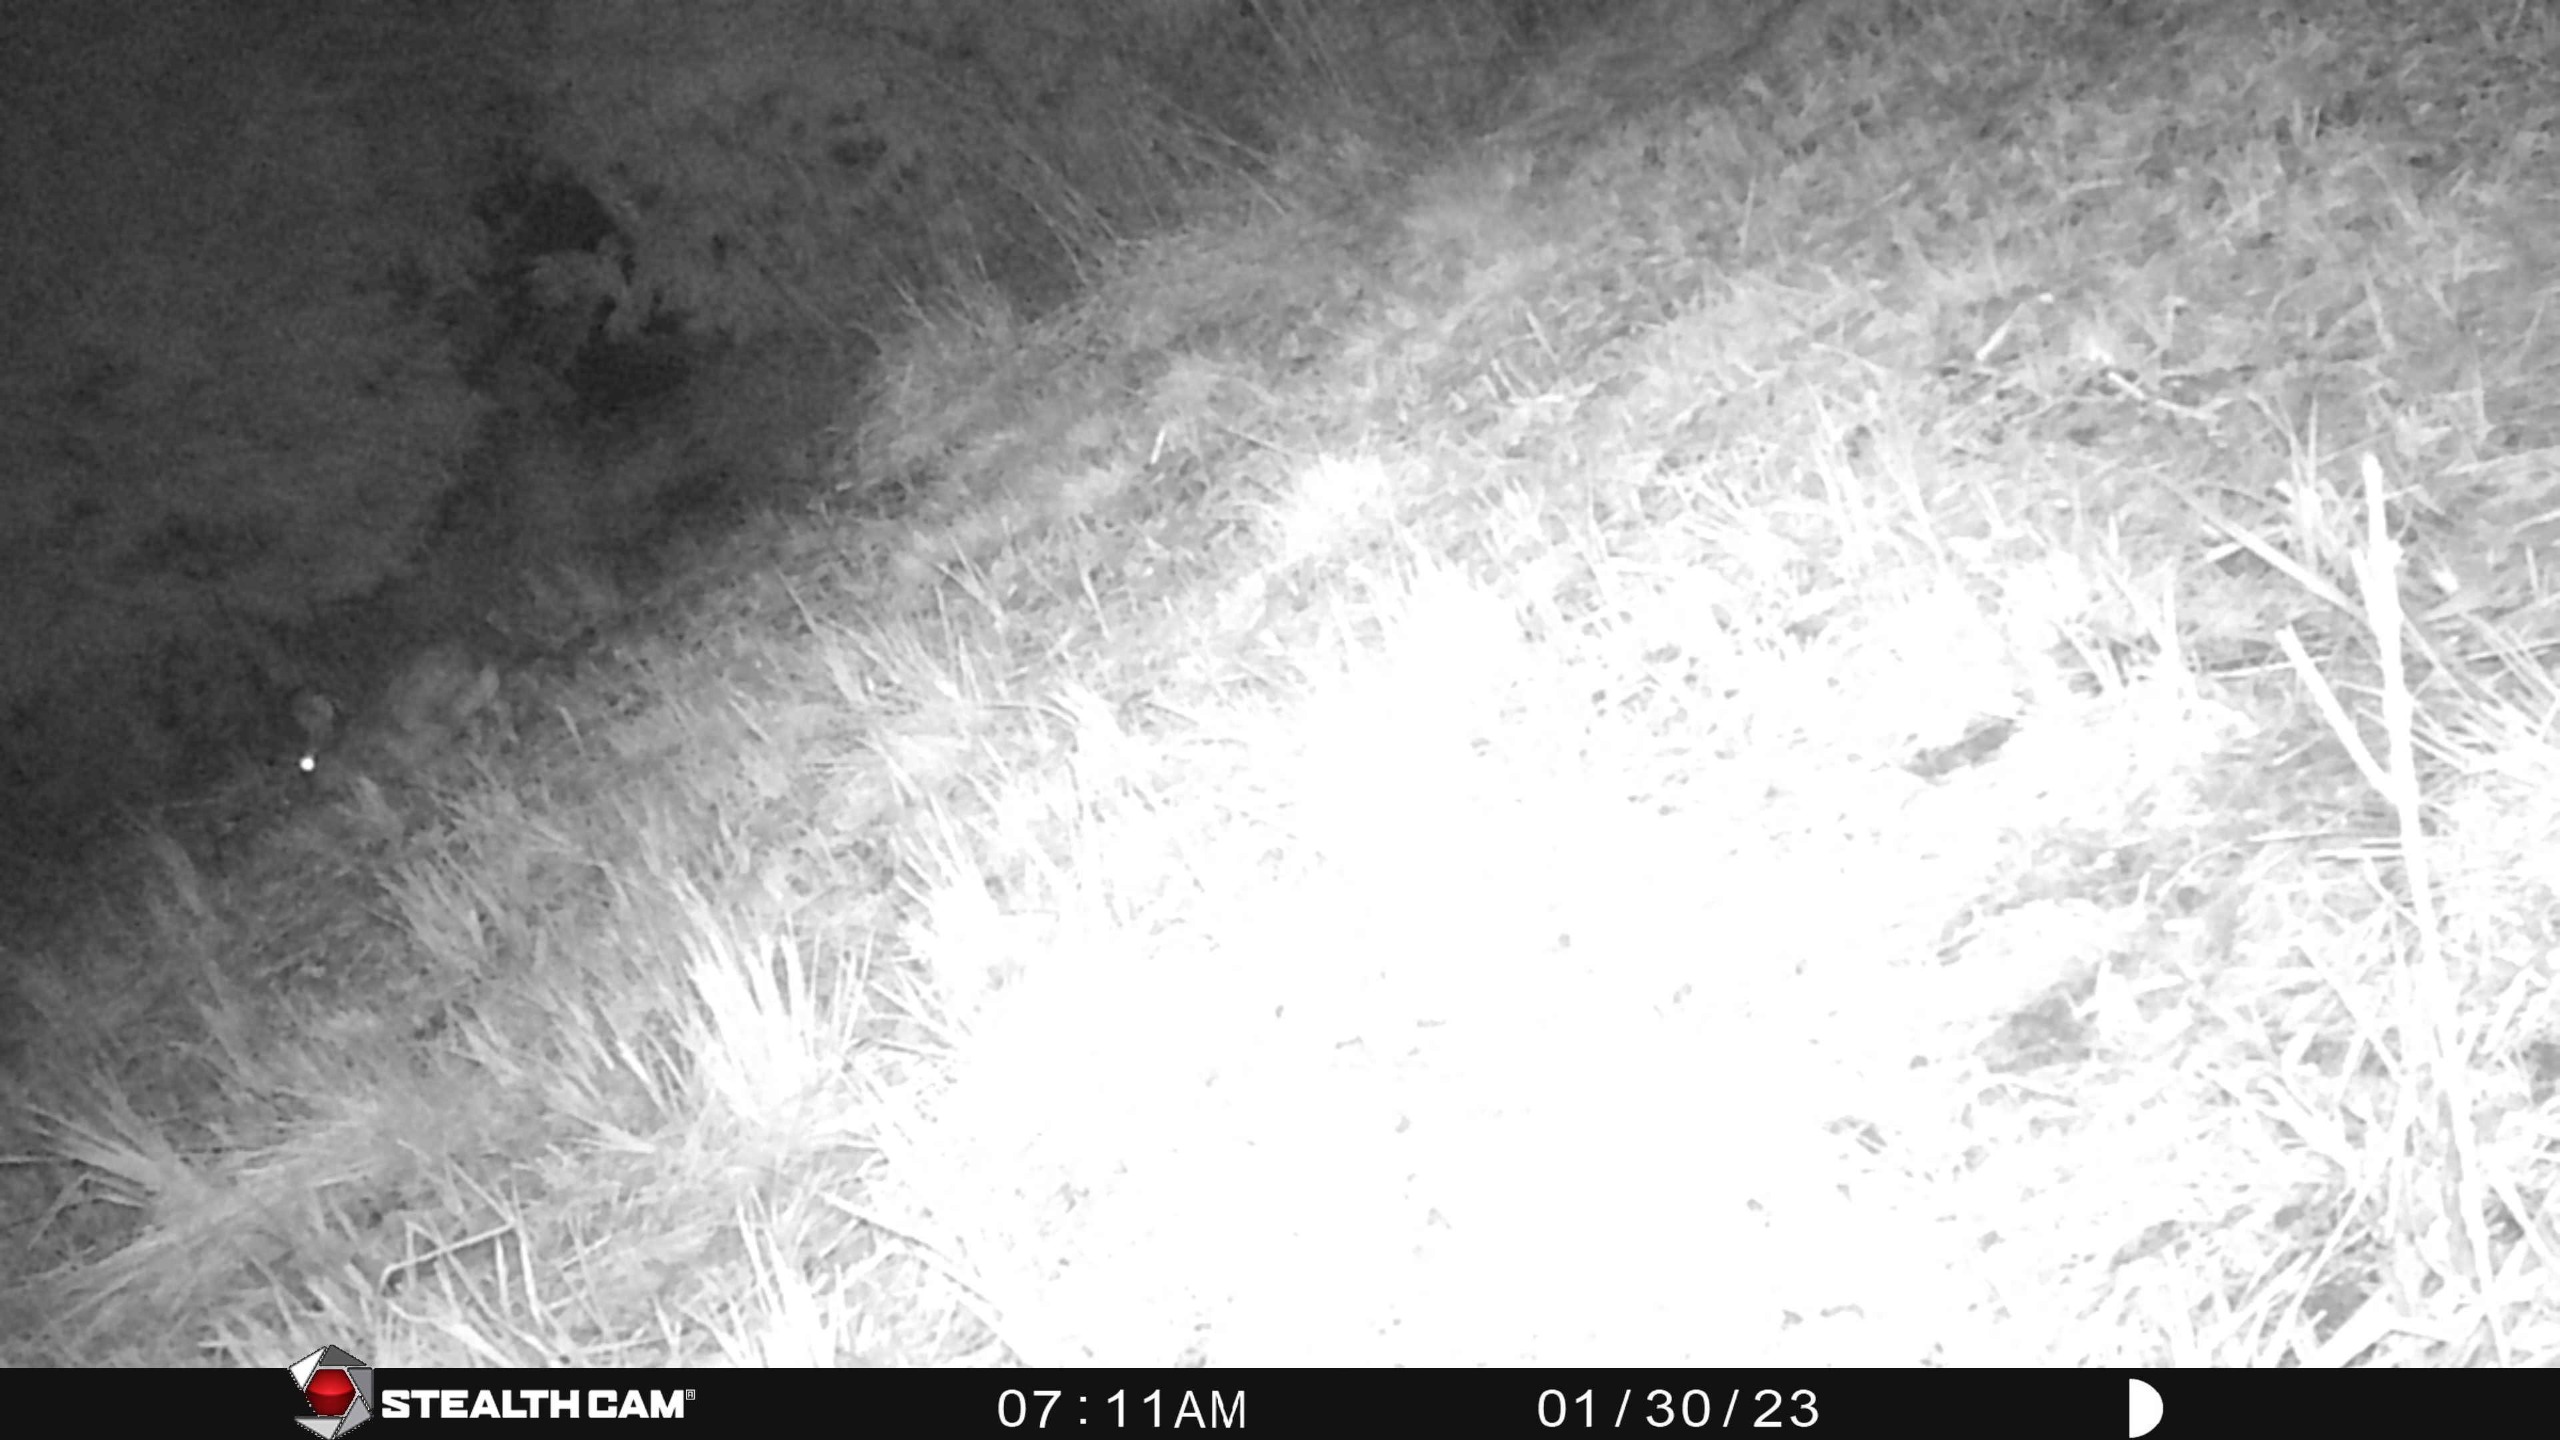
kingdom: Animalia
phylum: Chordata
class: Mammalia
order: Lagomorpha
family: Leporidae
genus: Lepus
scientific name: Lepus europaeus
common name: Hare
